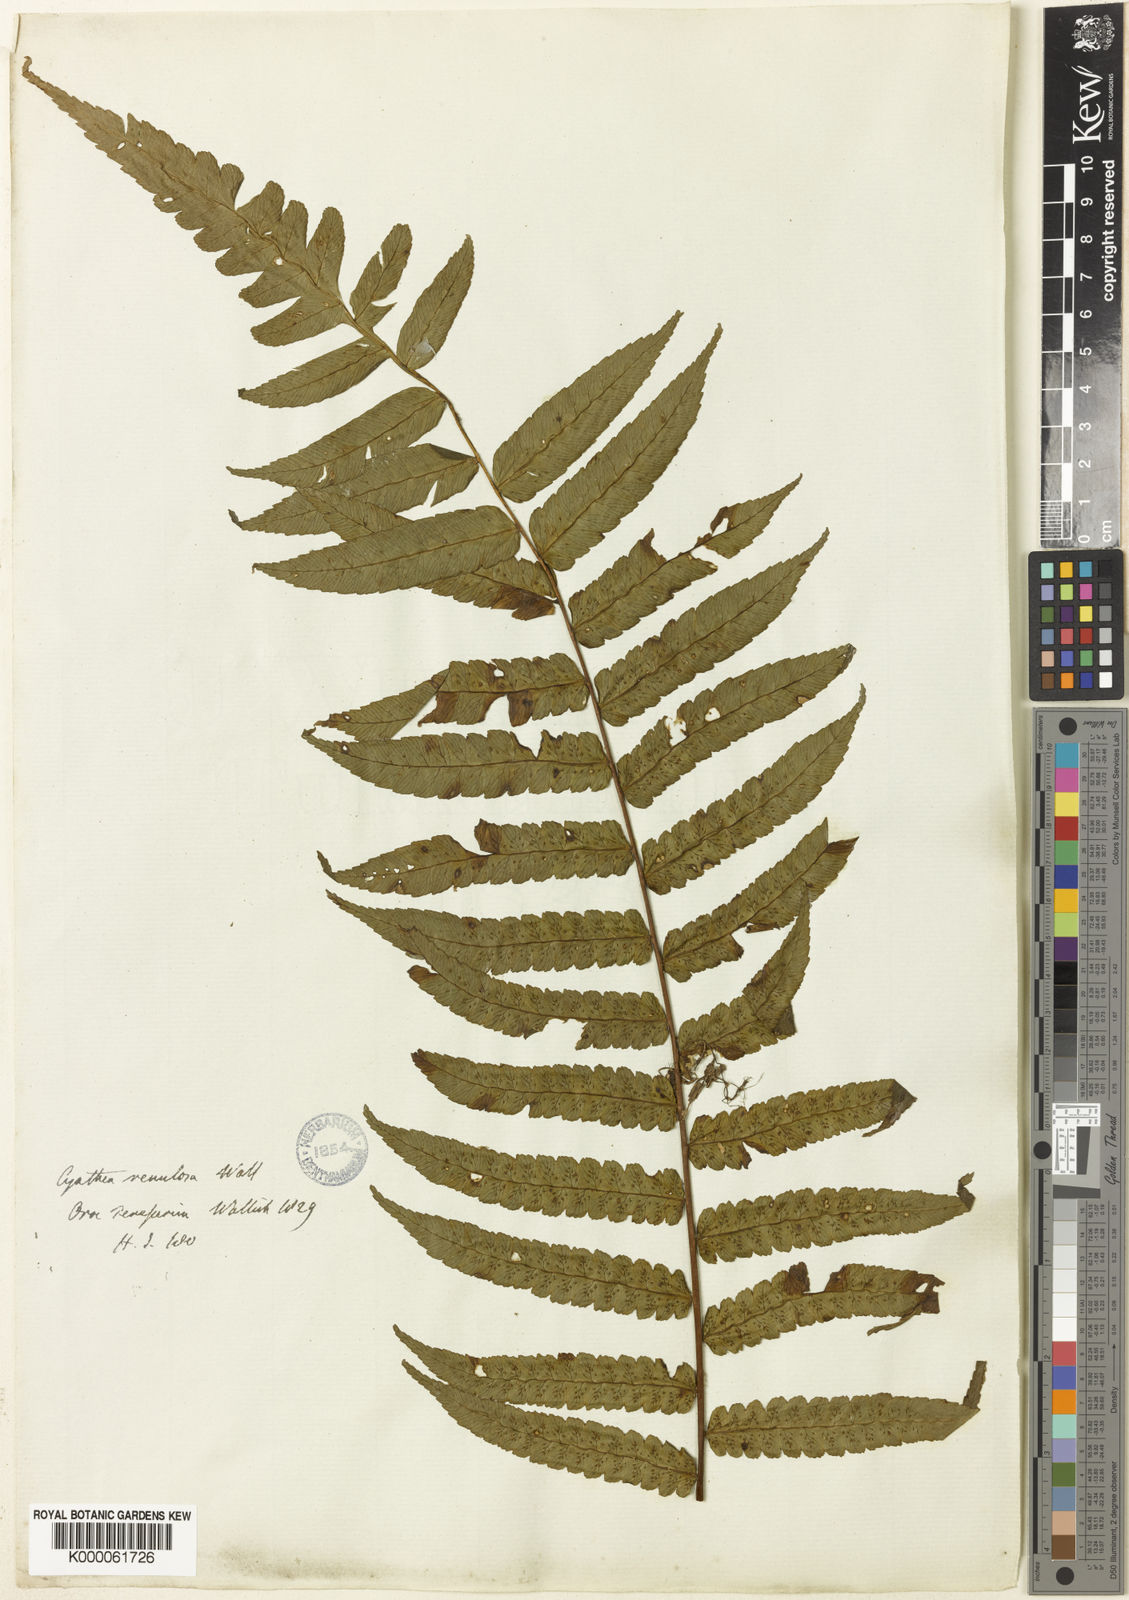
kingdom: Plantae
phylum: Tracheophyta
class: Polypodiopsida
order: Cyatheales
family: Cyatheaceae
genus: Gymnosphaera
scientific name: Gymnosphaera gigantea
